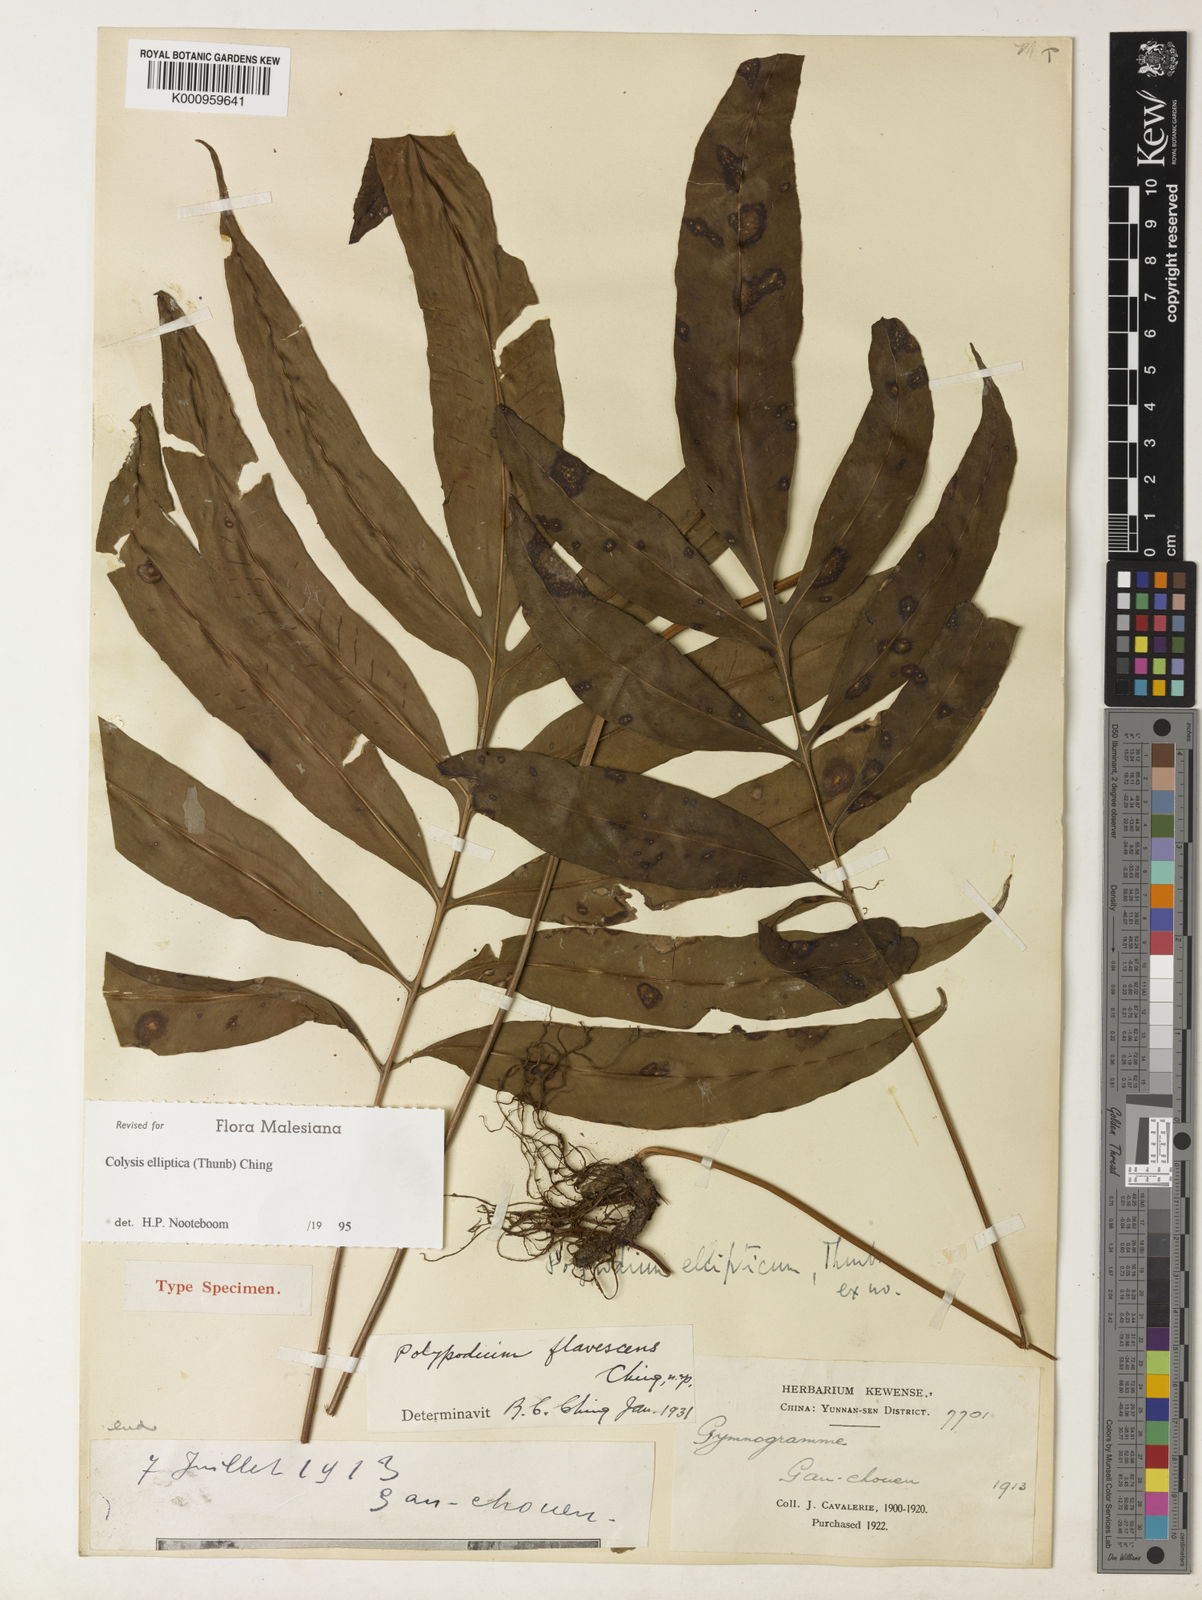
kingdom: Plantae
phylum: Tracheophyta
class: Polypodiopsida
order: Polypodiales
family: Polypodiaceae
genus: Leptochilus
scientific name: Leptochilus ellipticus
